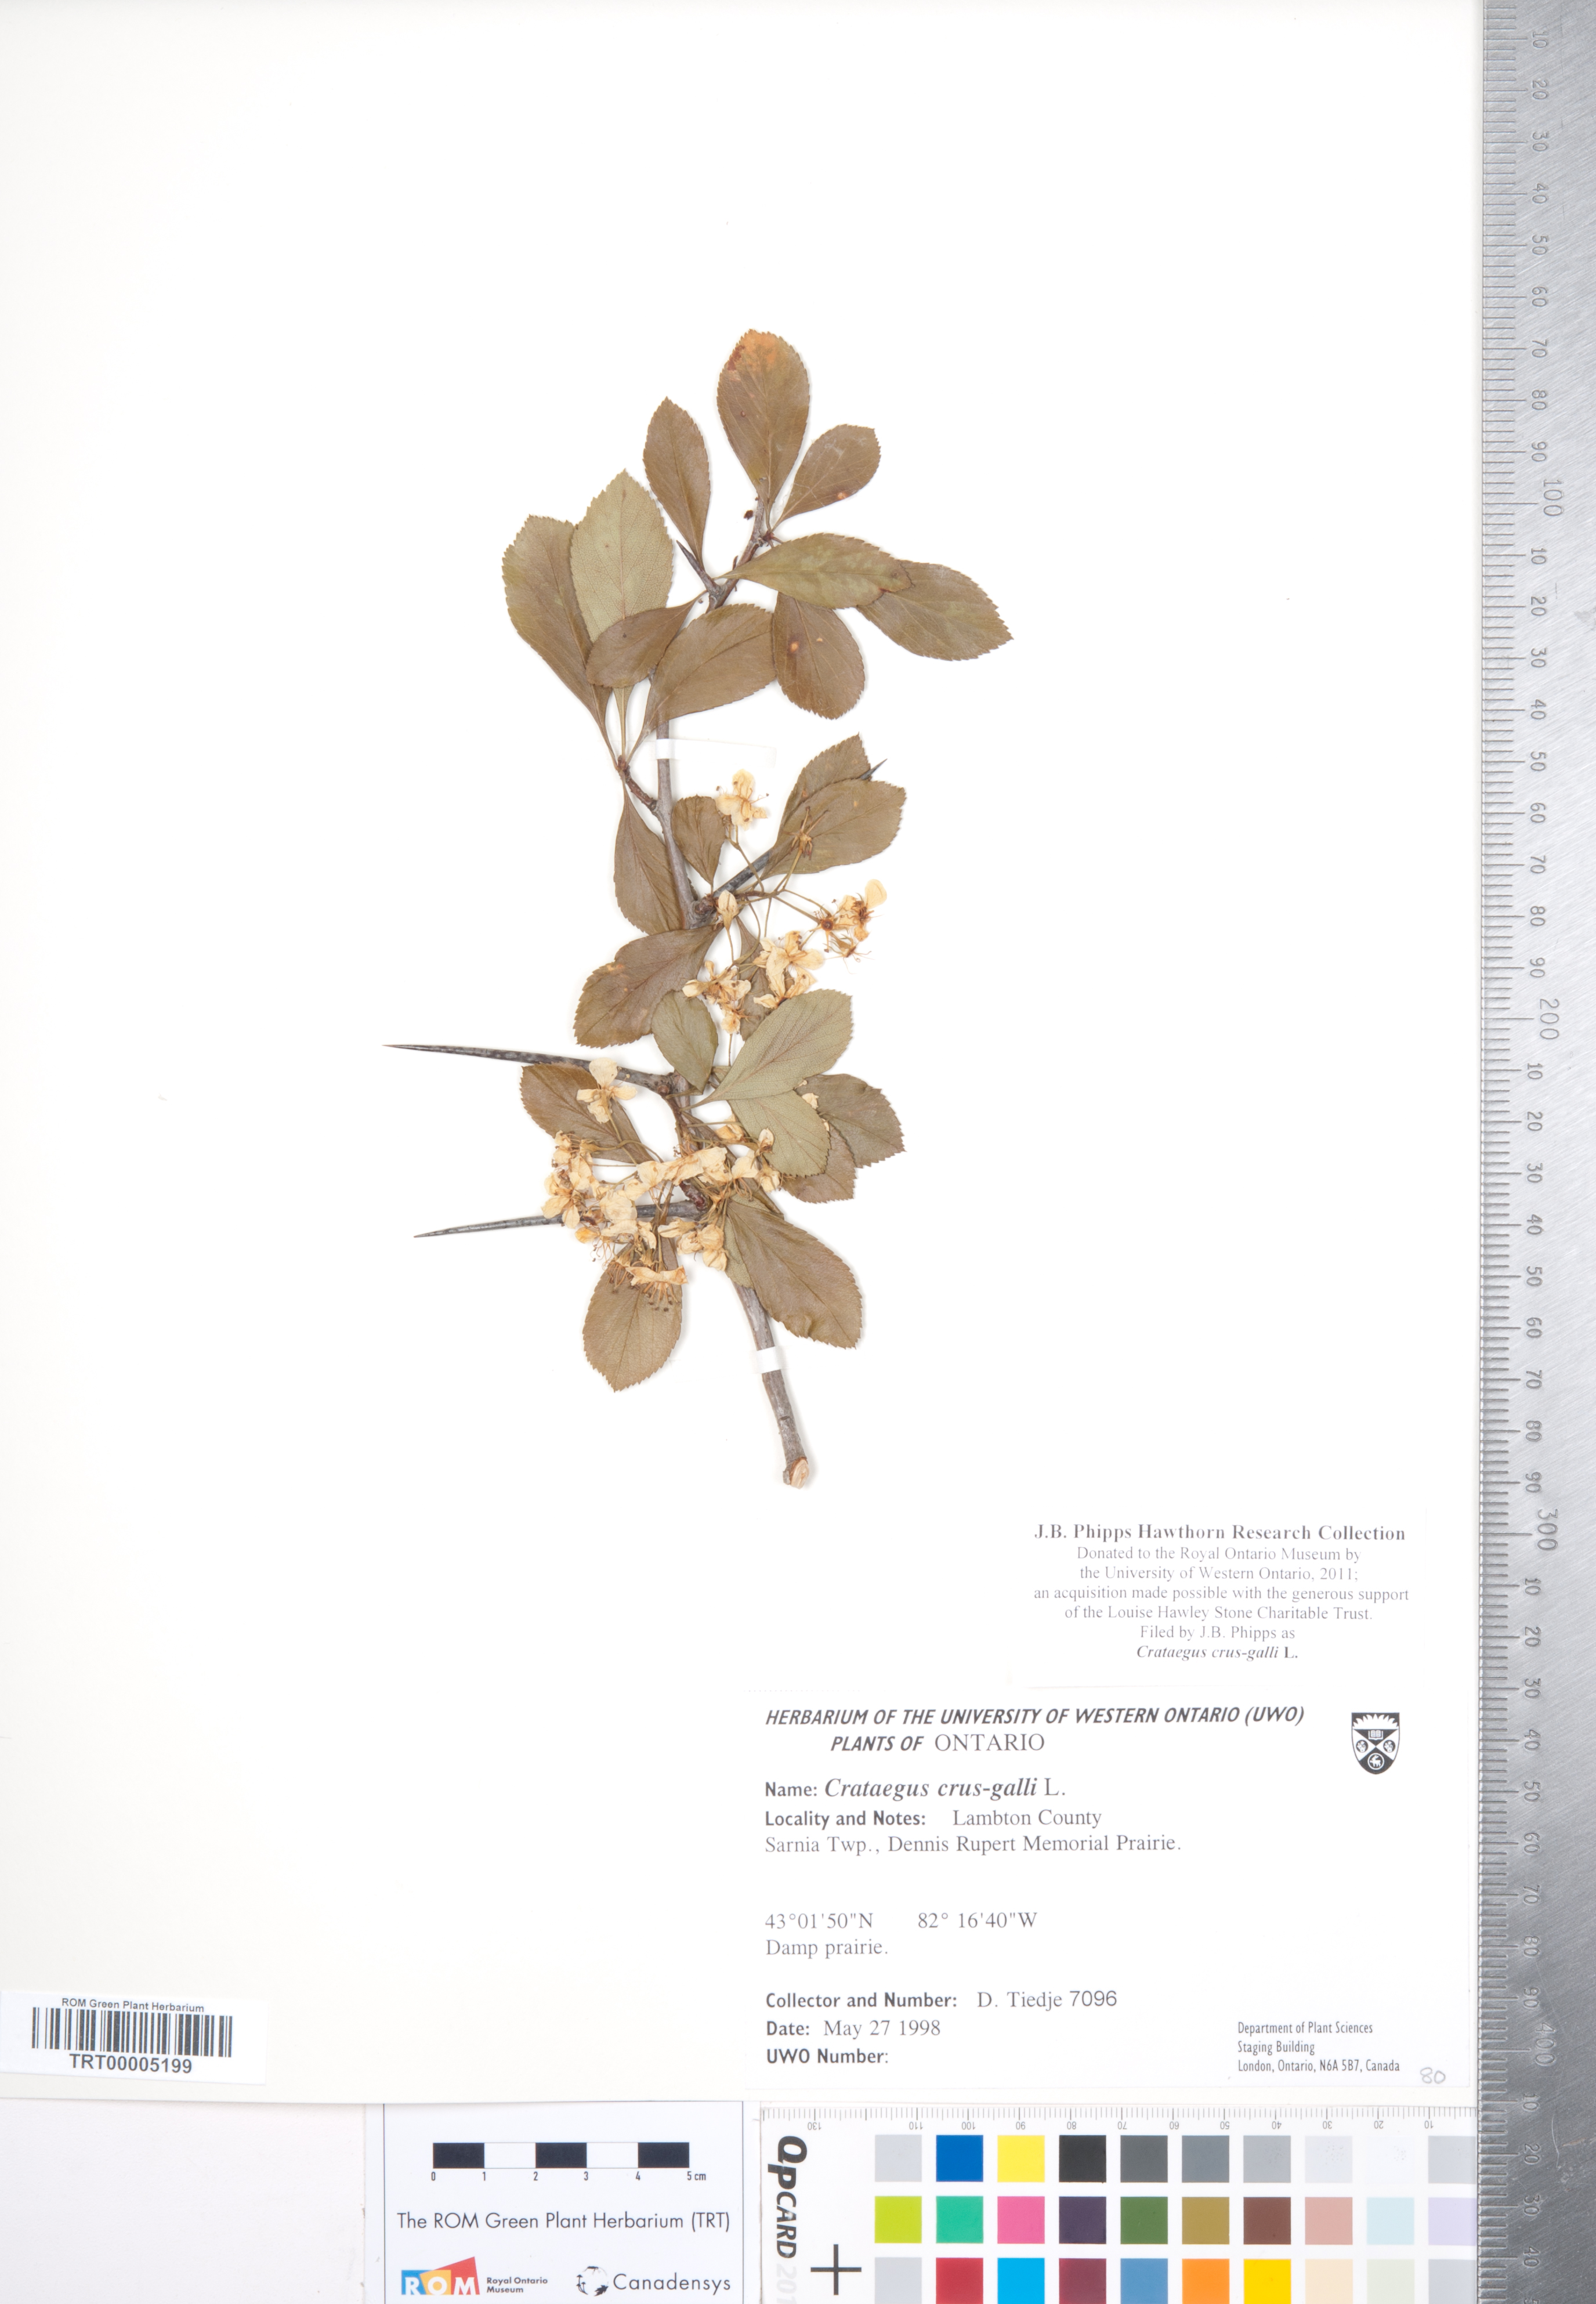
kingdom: Plantae
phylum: Tracheophyta
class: Magnoliopsida
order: Rosales
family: Rosaceae
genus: Crataegus
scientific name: Crataegus crus-galli
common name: Cockspurthorn
